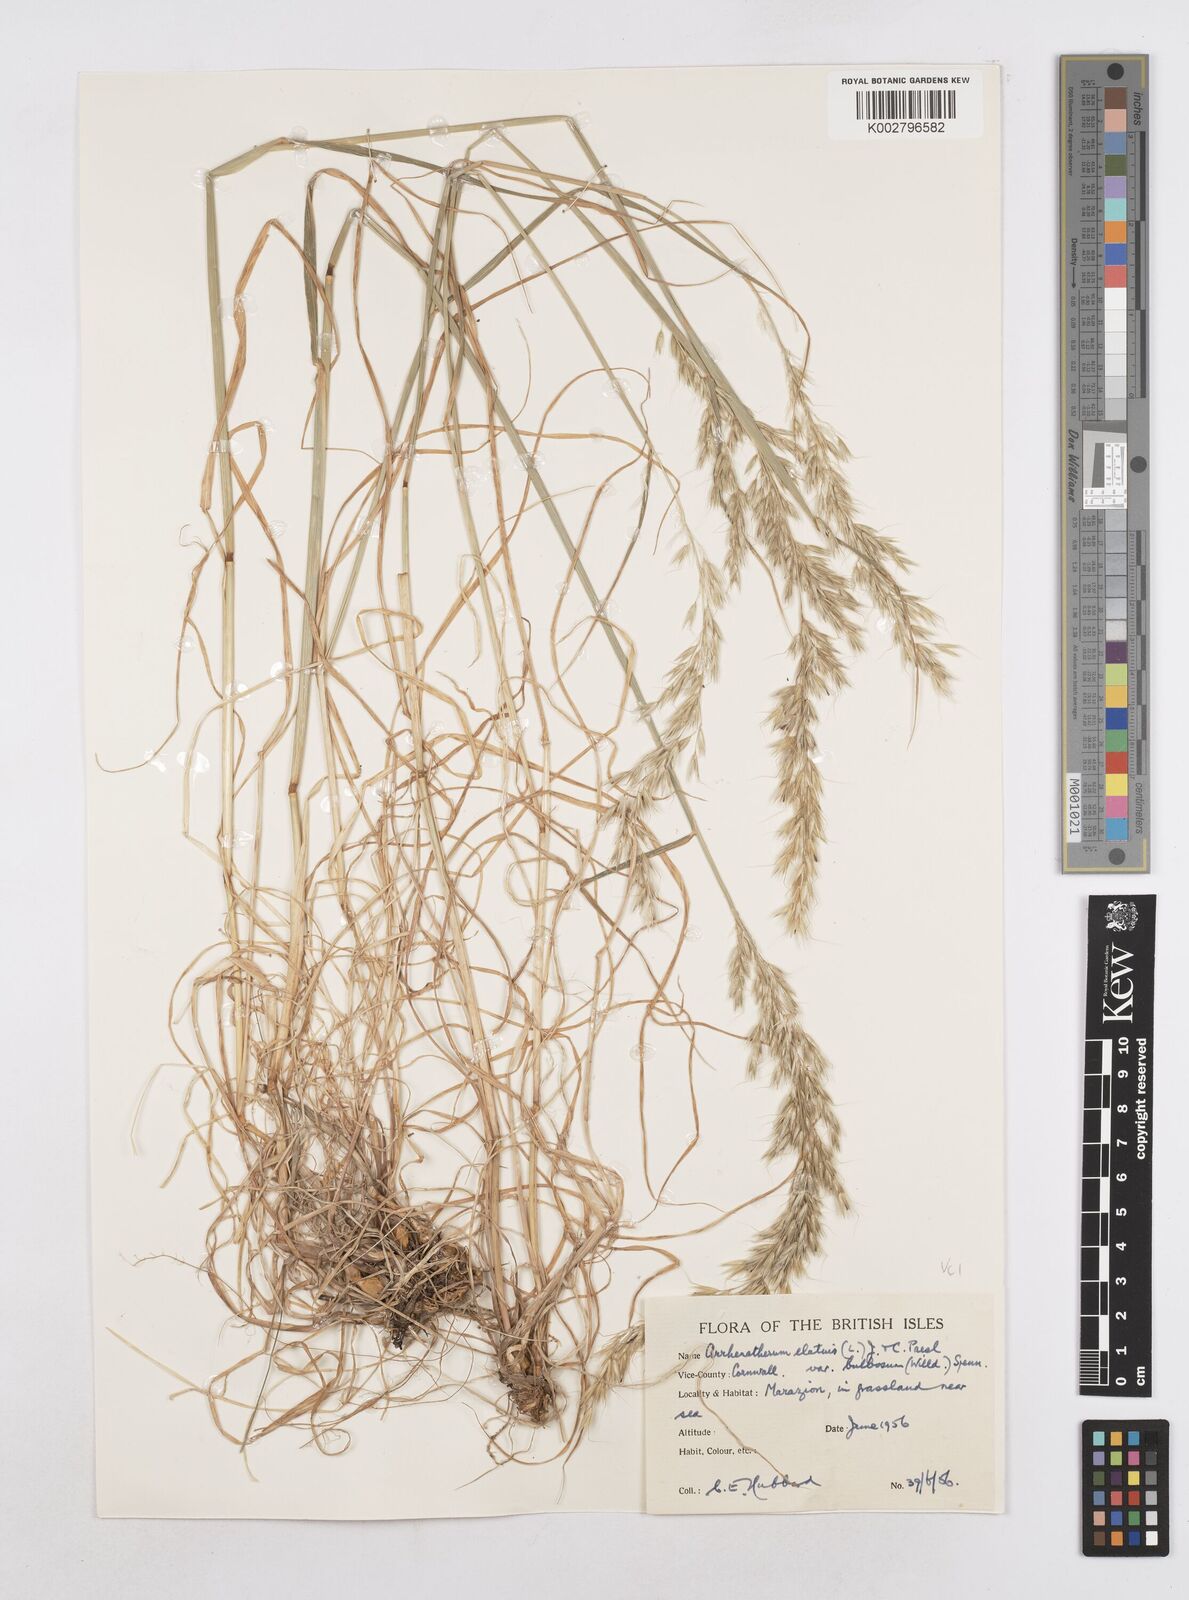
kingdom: Plantae
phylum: Tracheophyta
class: Liliopsida
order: Poales
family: Poaceae
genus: Arrhenatherum
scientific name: Arrhenatherum elatius
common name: Tall oatgrass
